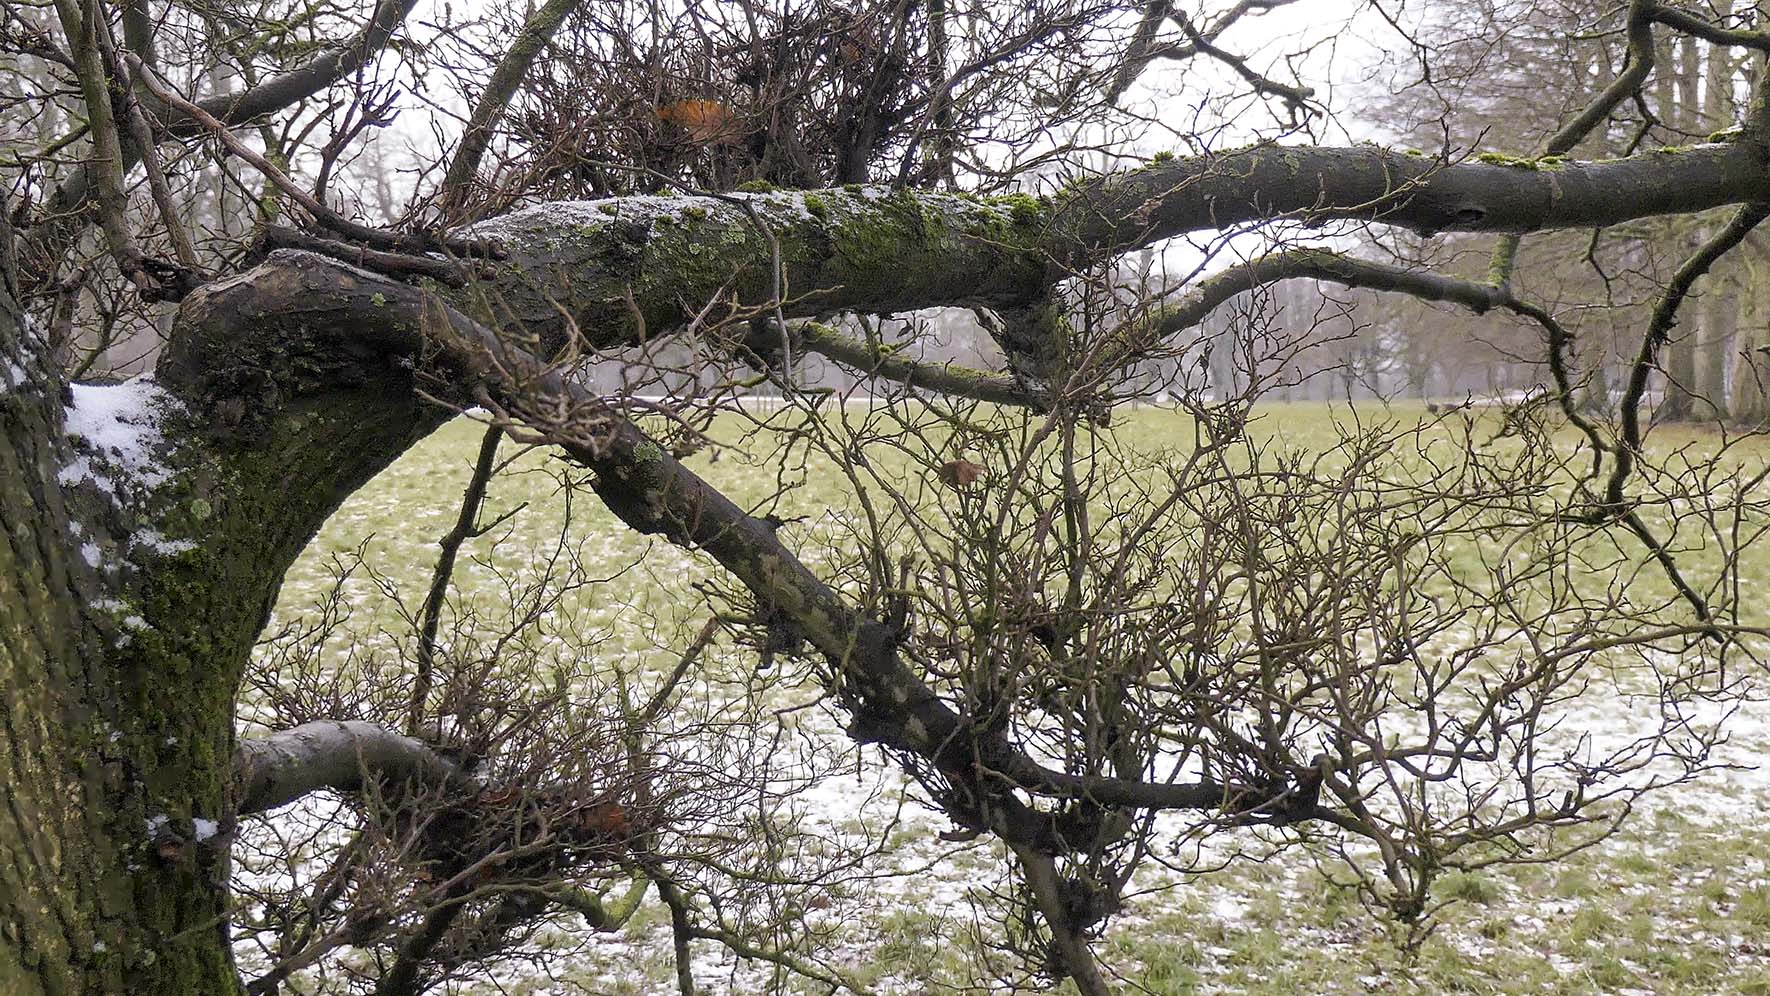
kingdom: Fungi
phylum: Ascomycota
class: Taphrinomycetes
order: Taphrinales
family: Taphrinaceae
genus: Taphrina
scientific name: Taphrina carpini
